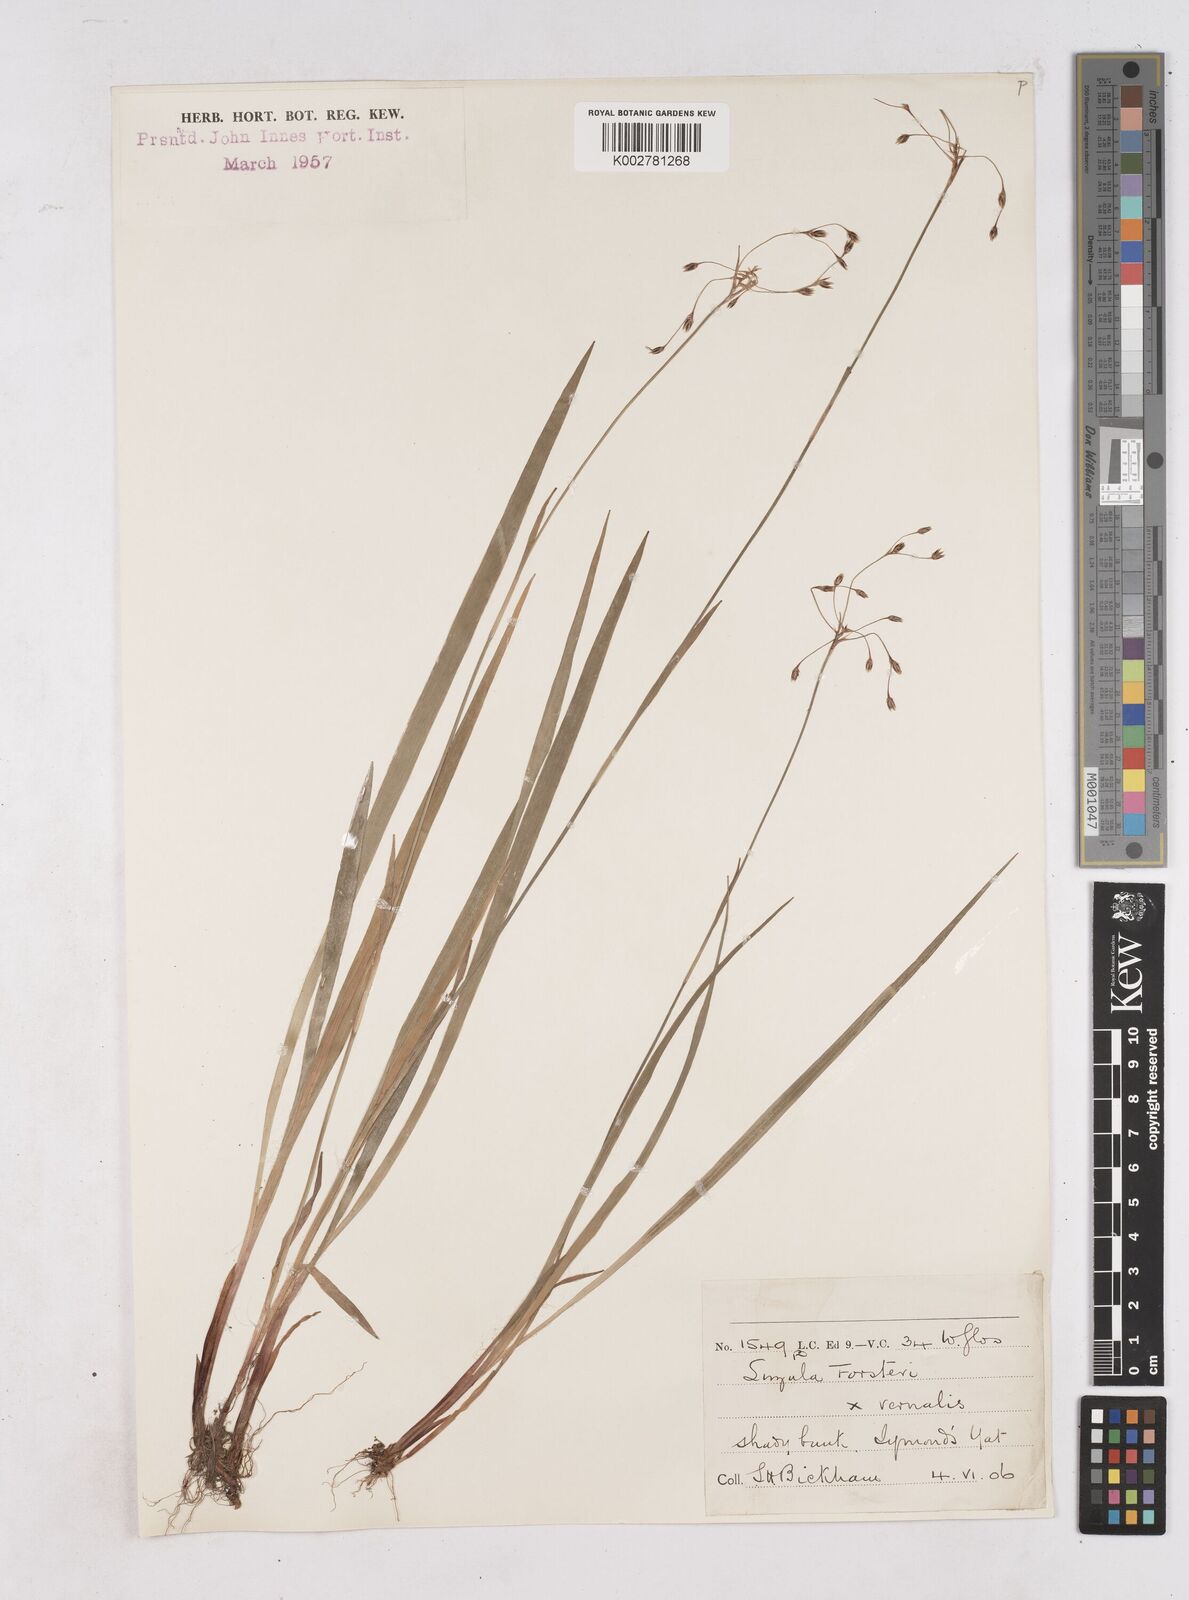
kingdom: Plantae
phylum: Tracheophyta
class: Liliopsida
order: Poales
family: Juncaceae
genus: Luzula
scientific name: Luzula borreri
